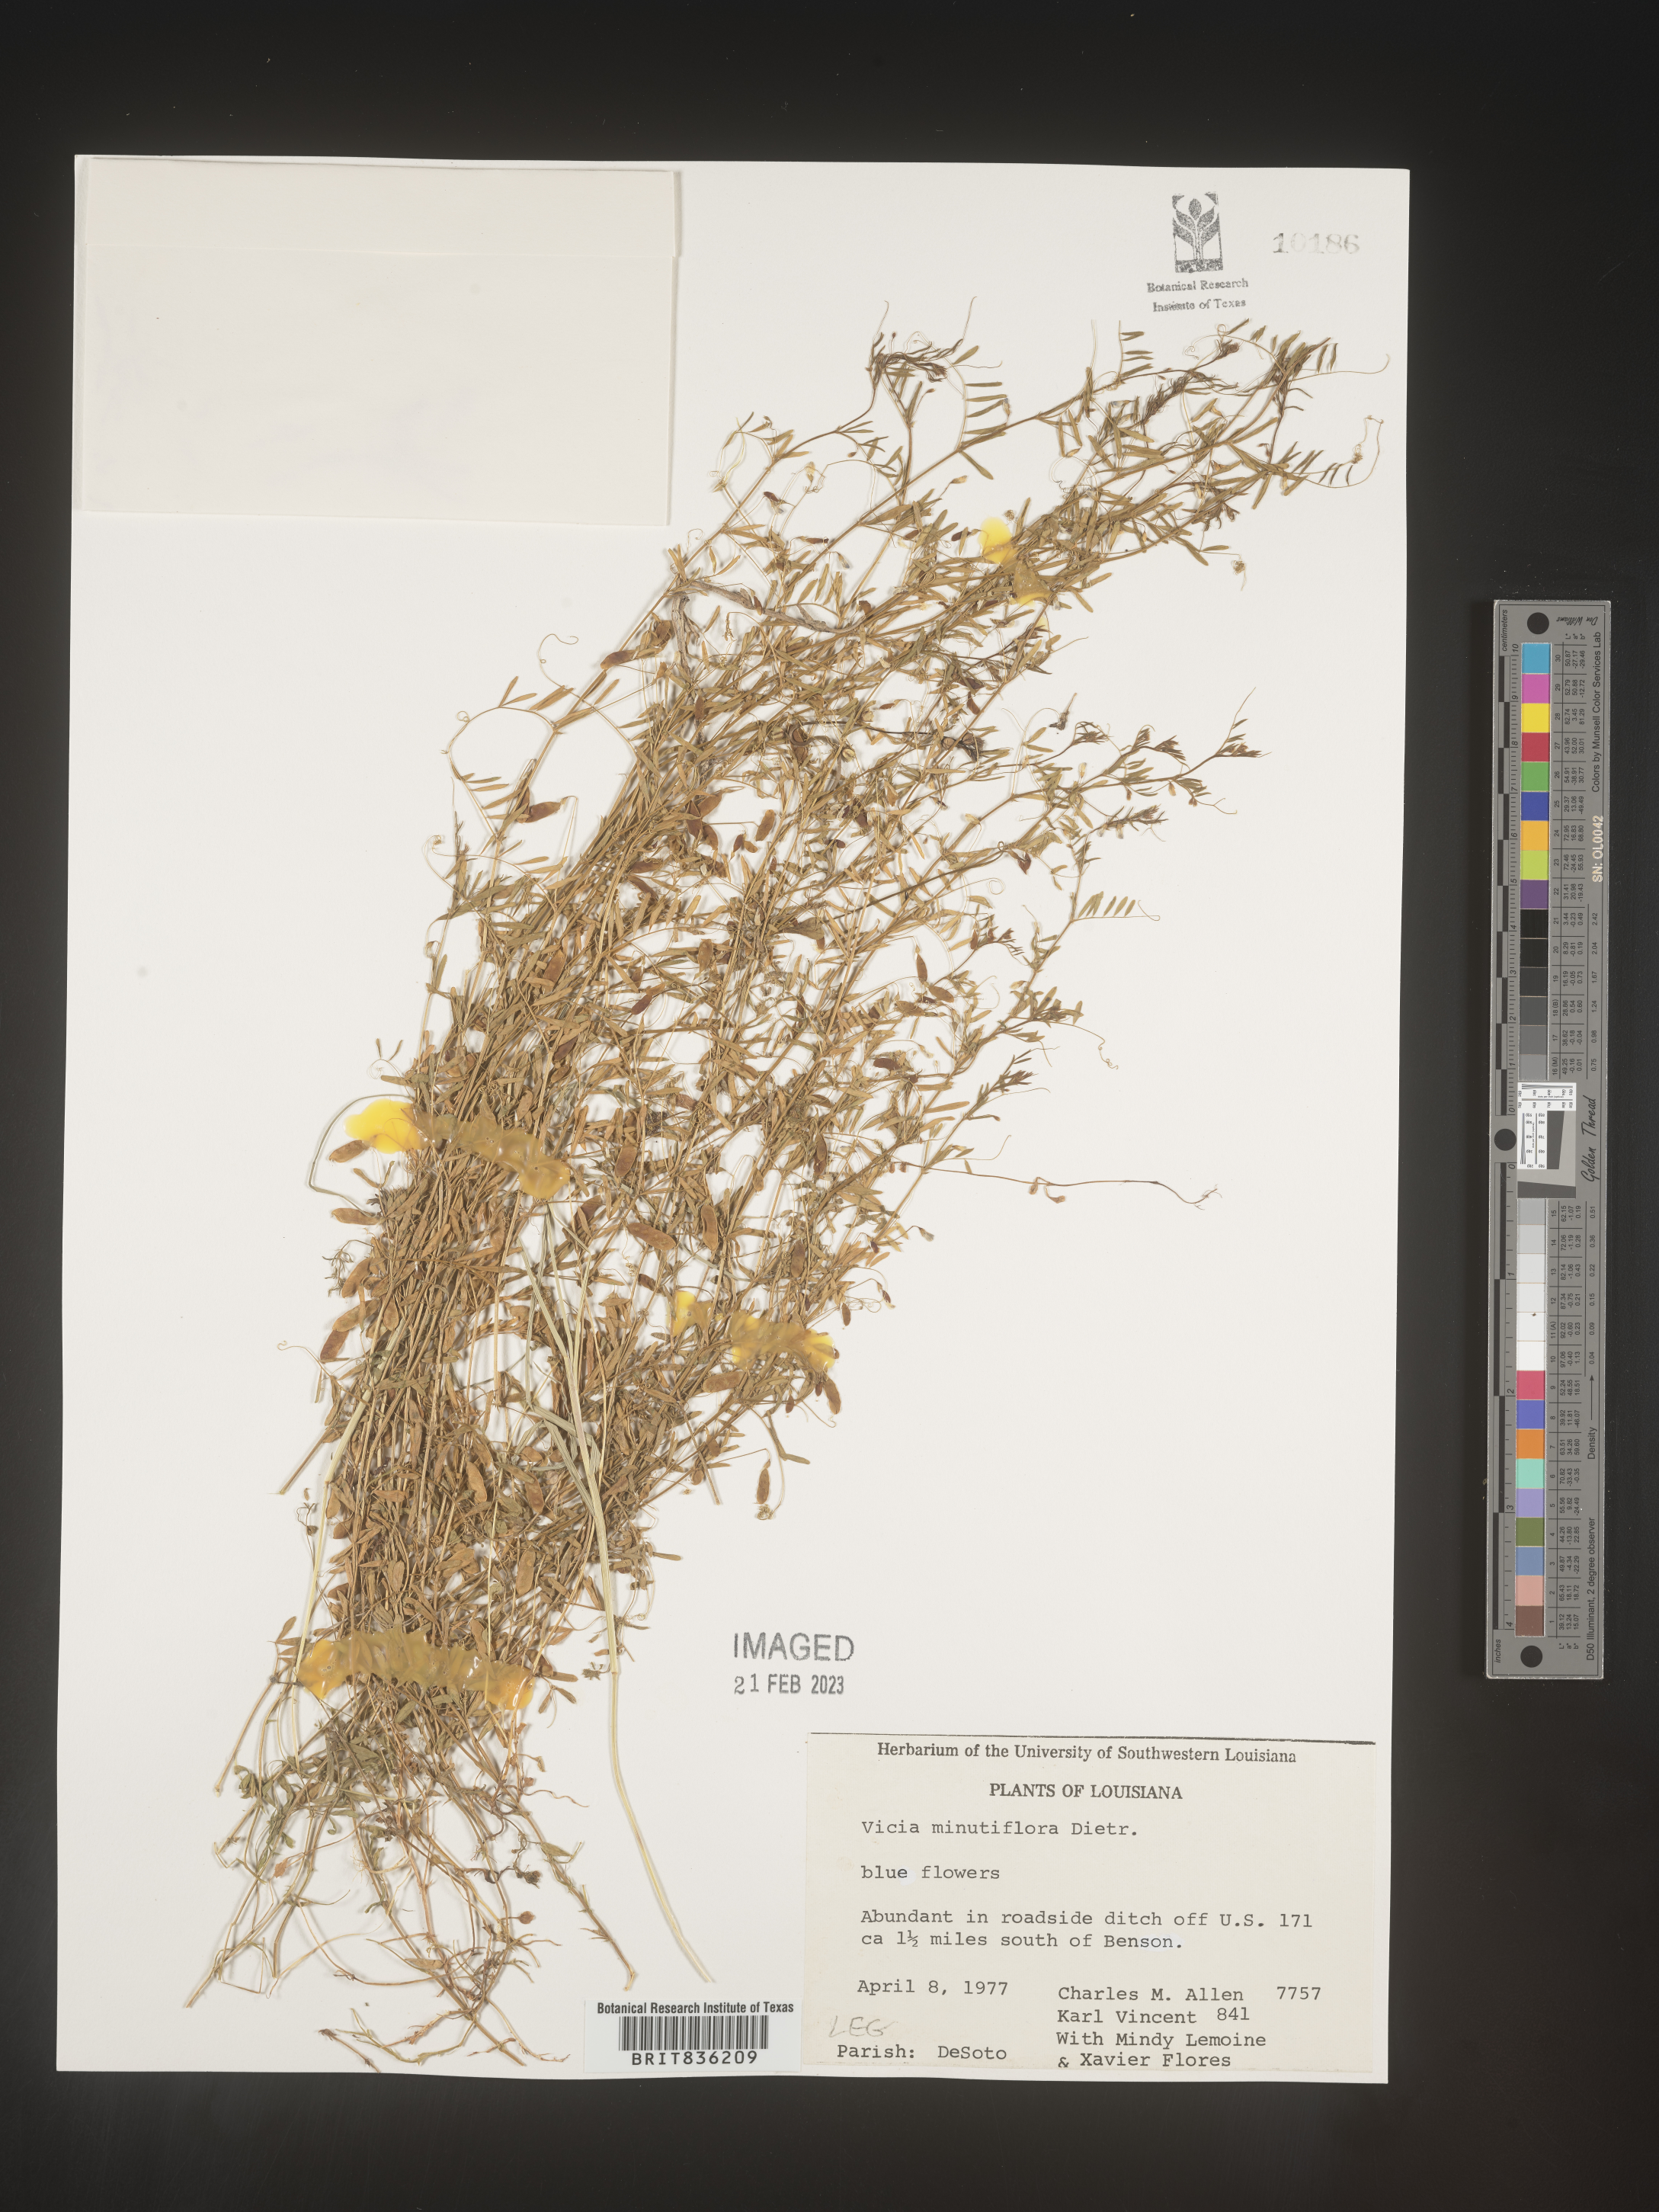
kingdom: Plantae
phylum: Tracheophyta
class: Magnoliopsida
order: Fabales
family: Fabaceae
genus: Vicia
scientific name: Vicia minutiflora
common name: Pygmy-flower vetch
